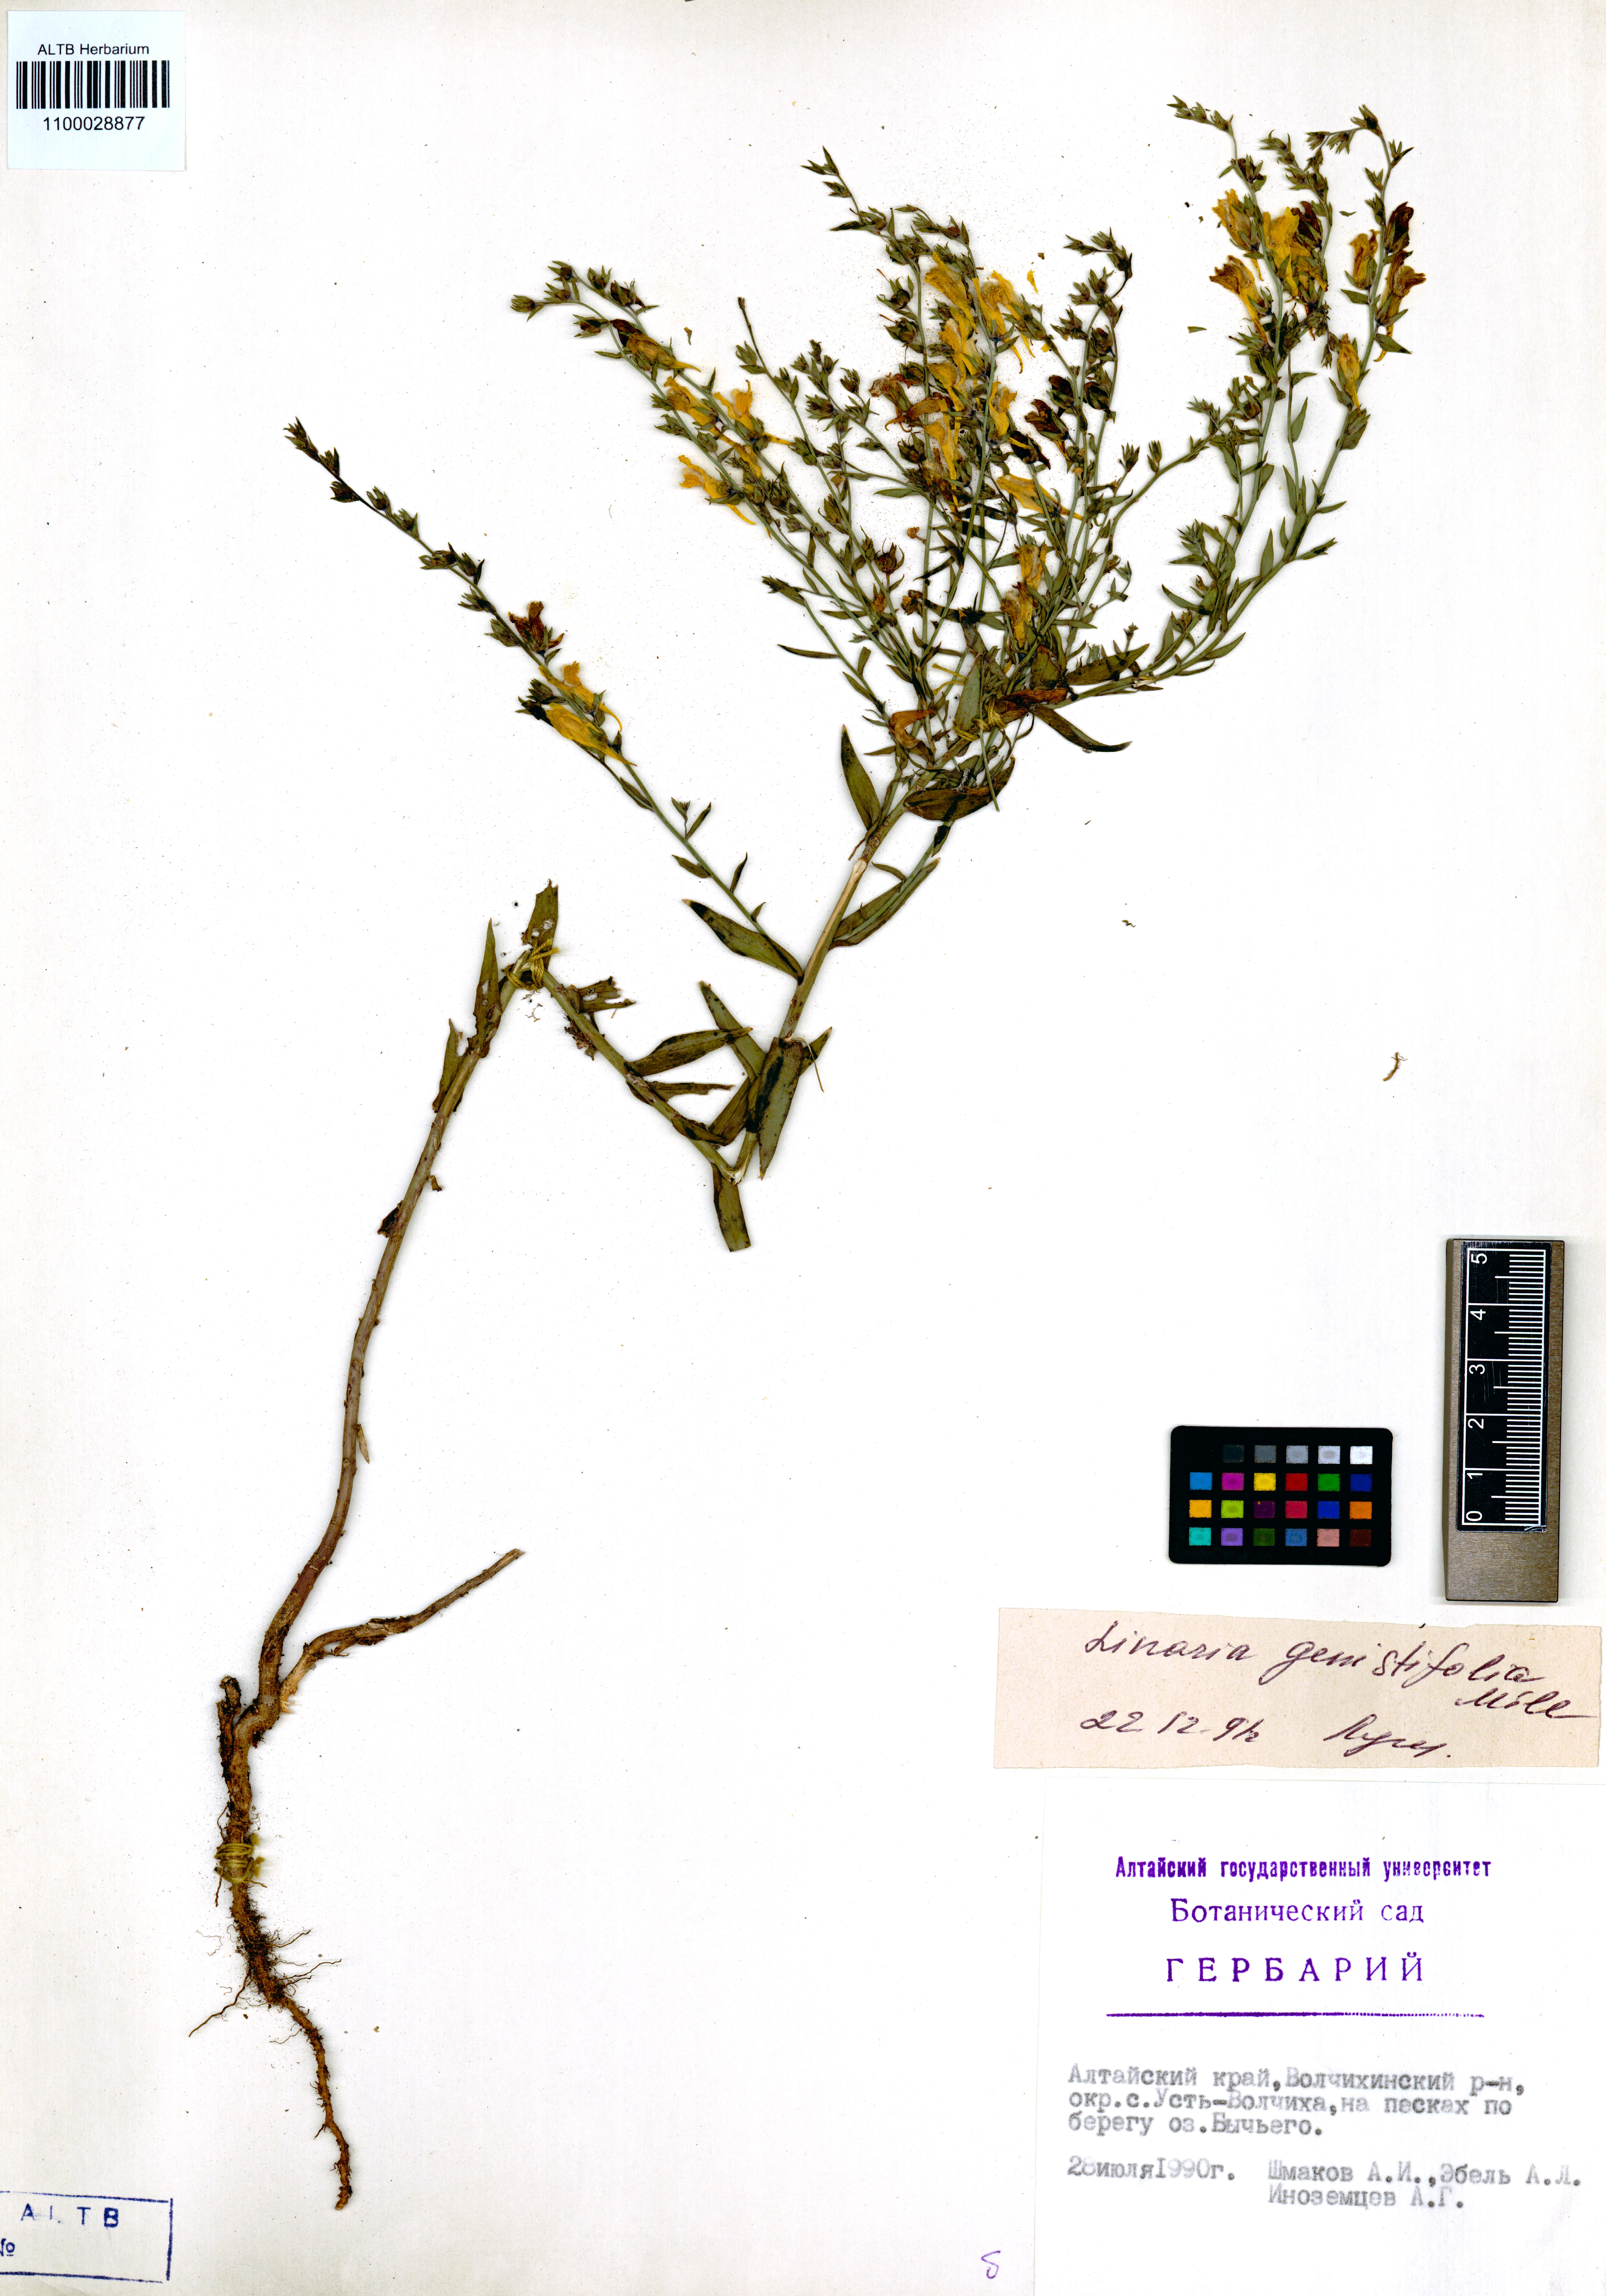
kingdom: Plantae
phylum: Tracheophyta
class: Magnoliopsida
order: Lamiales
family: Plantaginaceae
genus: Linaria
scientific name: Linaria genistifolia
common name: Broomleaf toadflax
